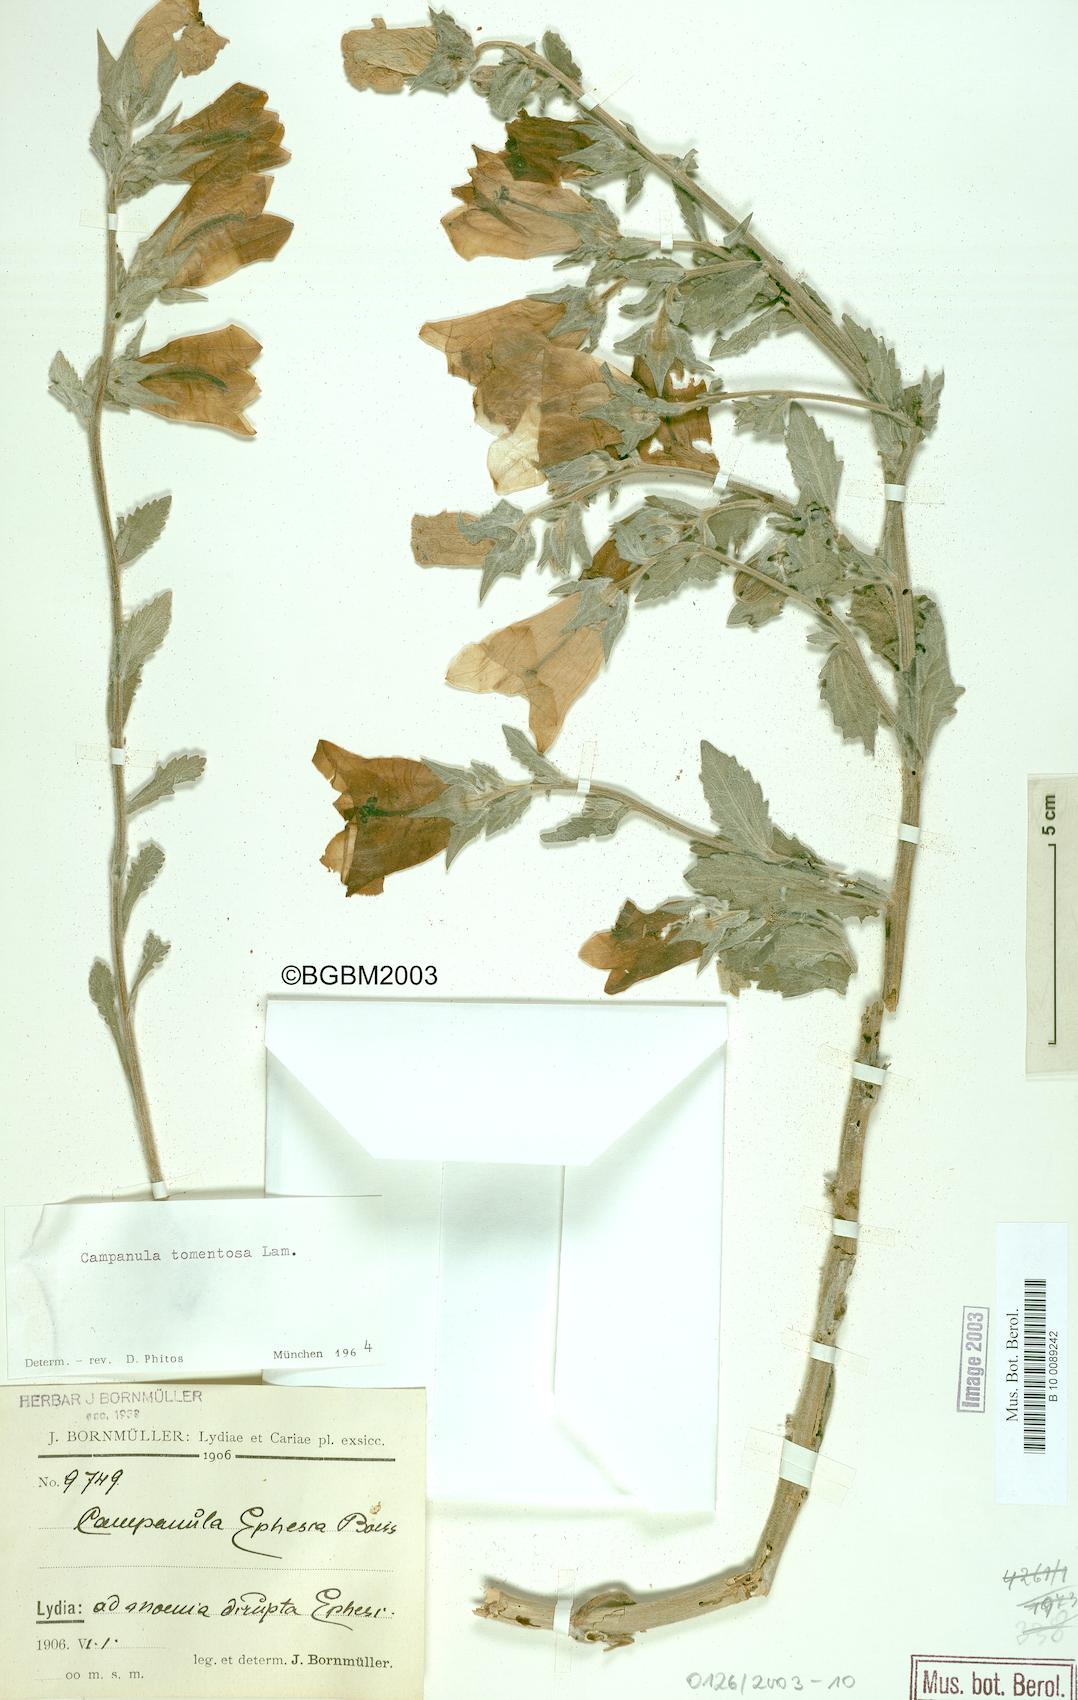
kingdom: Plantae
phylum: Tracheophyta
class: Magnoliopsida
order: Asterales
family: Campanulaceae
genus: Campanula
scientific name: Campanula tomentosa
